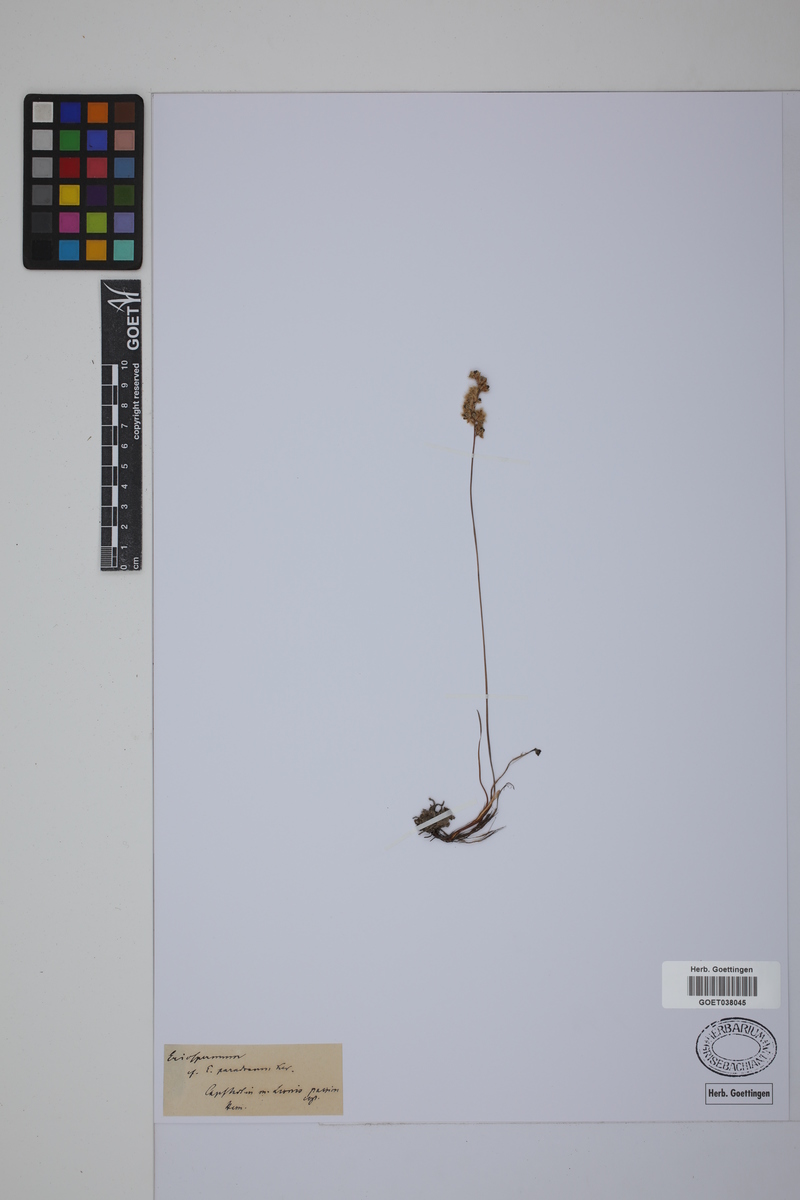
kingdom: Plantae
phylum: Tracheophyta
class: Liliopsida
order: Asparagales
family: Asparagaceae
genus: Eriospermum
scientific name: Eriospermum paradoxum
